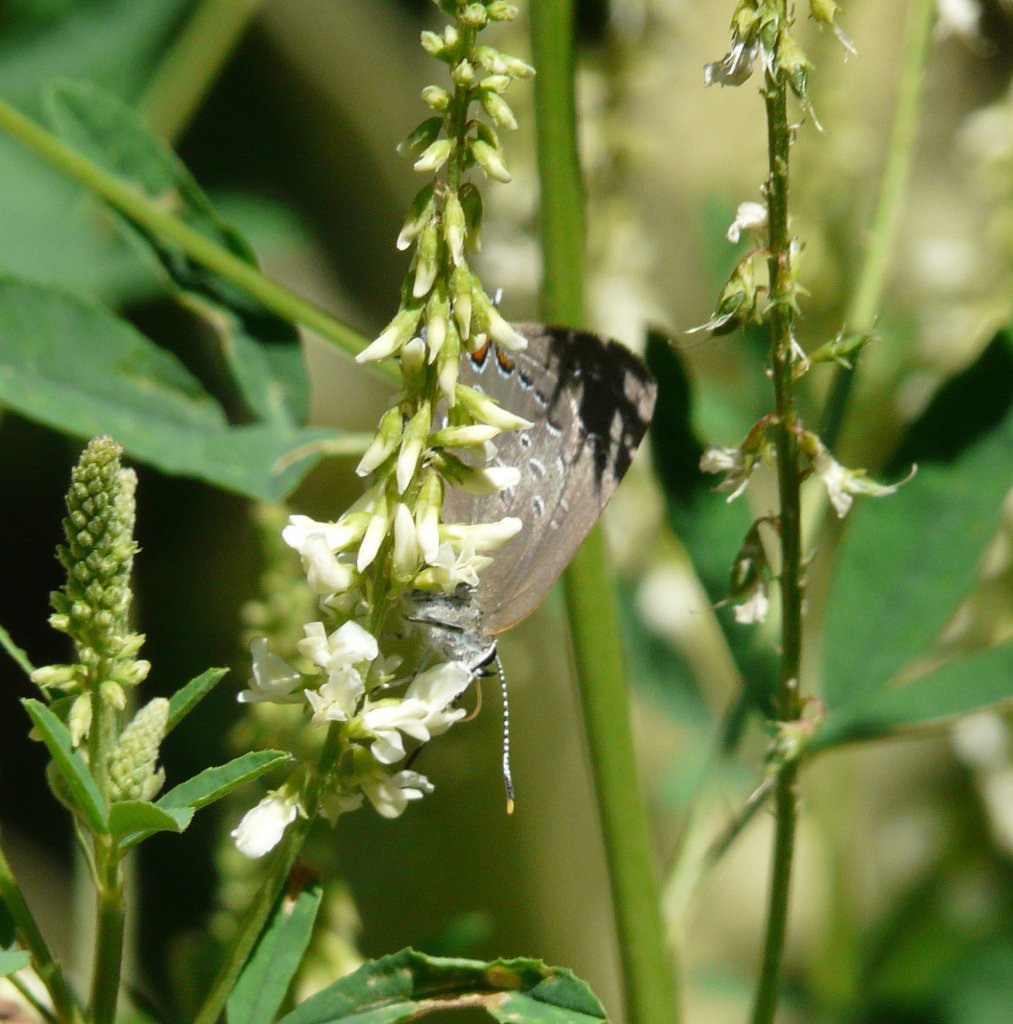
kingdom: Animalia
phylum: Arthropoda
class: Insecta
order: Lepidoptera
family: Lycaenidae
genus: Satyrium
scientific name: Satyrium edwardsii
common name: Edwards' Hairstreak
